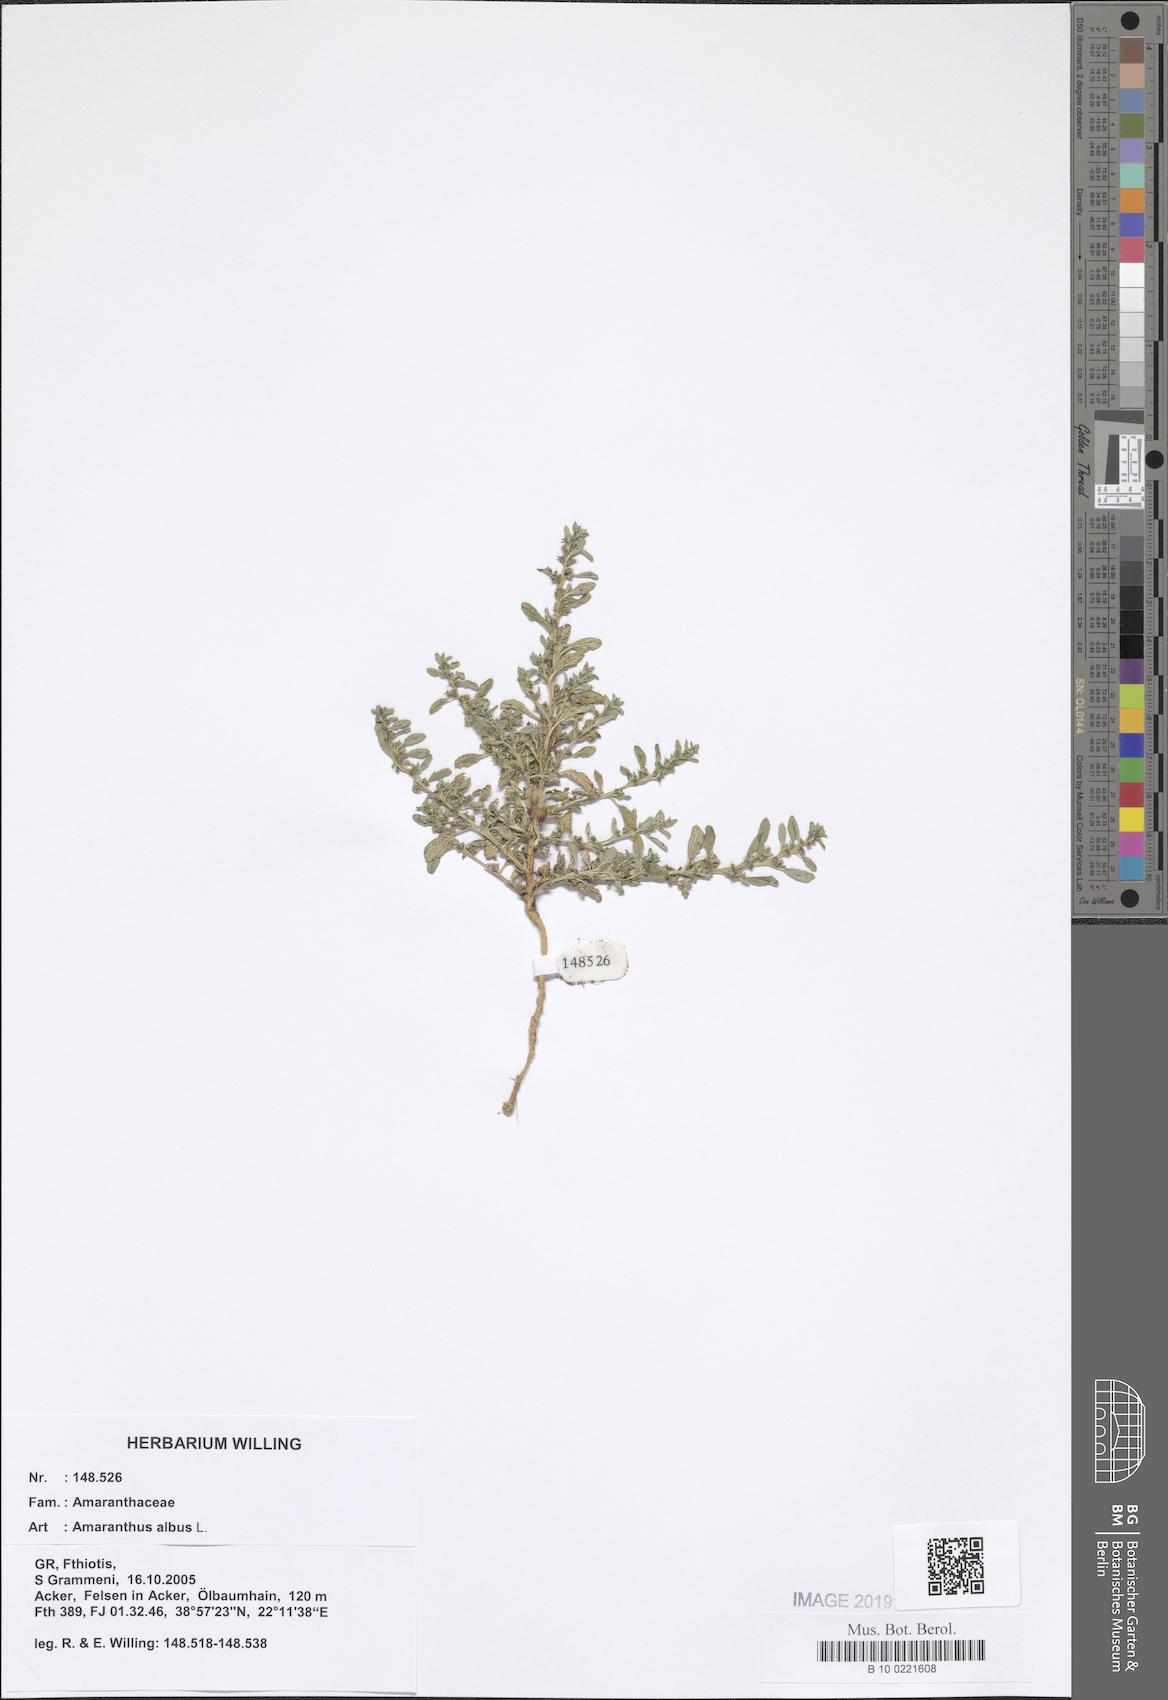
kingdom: Plantae
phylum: Tracheophyta
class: Magnoliopsida
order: Caryophyllales
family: Amaranthaceae
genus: Amaranthus
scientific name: Amaranthus albus
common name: White pigweed
